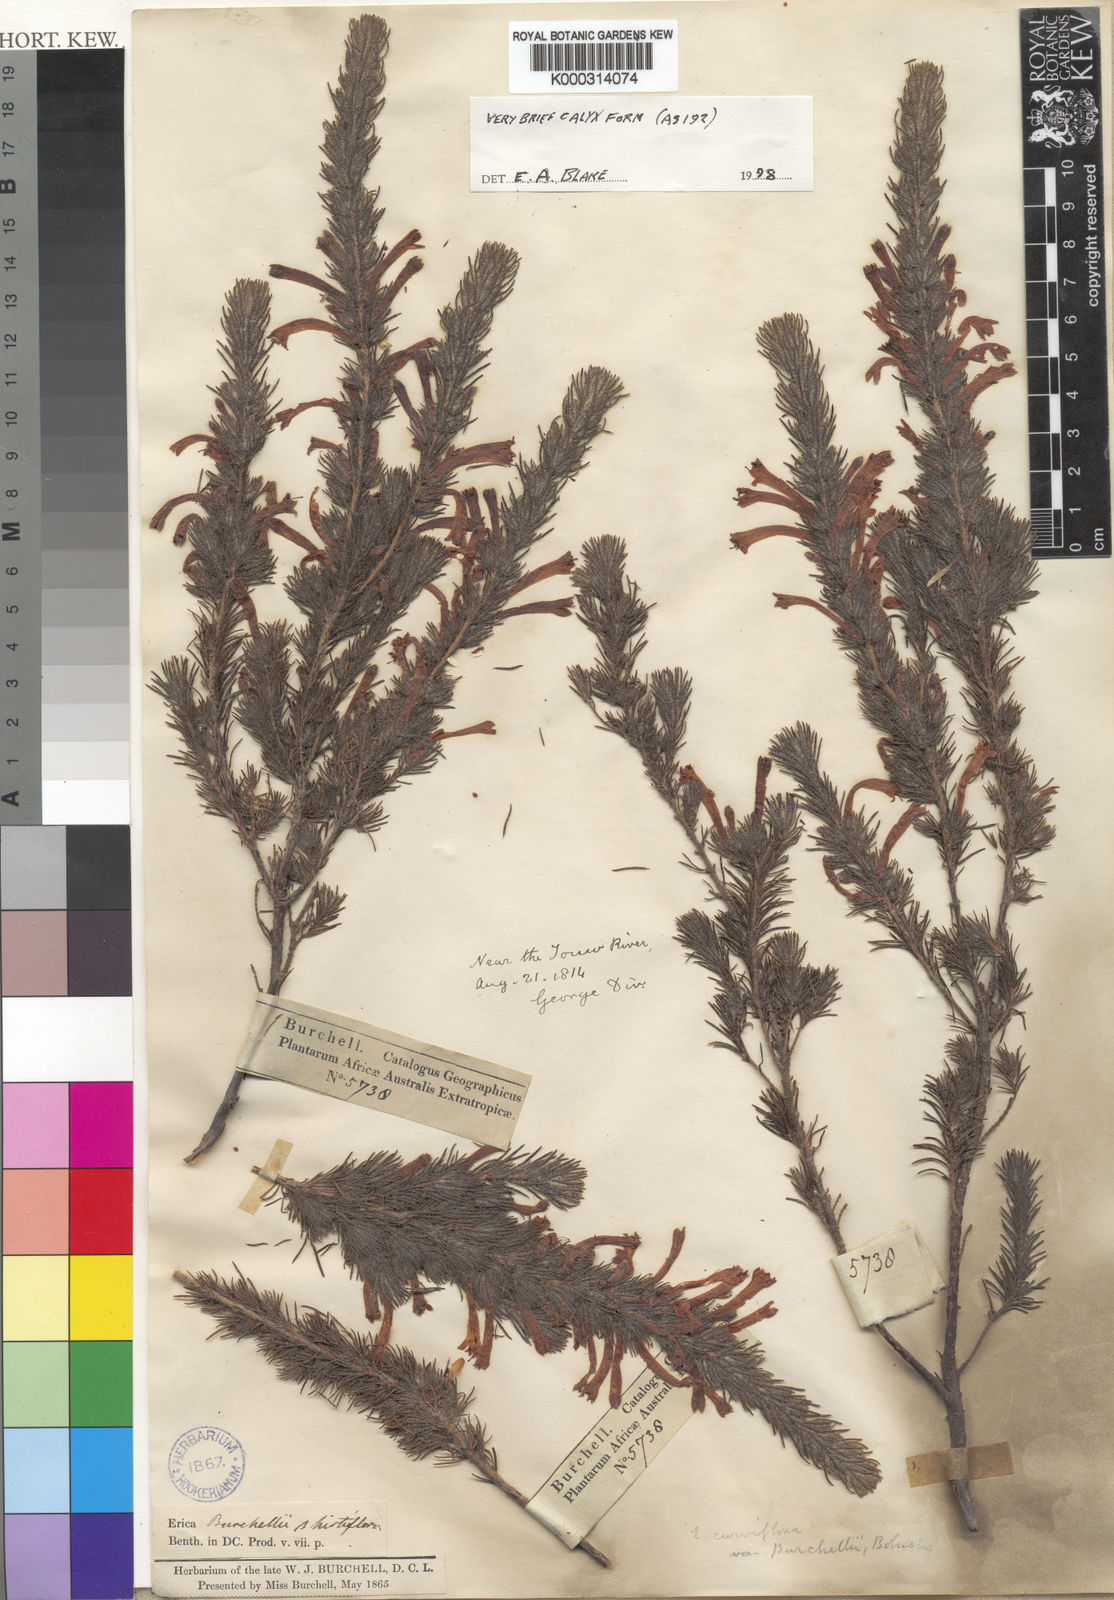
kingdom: Plantae
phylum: Tracheophyta
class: Magnoliopsida
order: Ericales
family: Ericaceae
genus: Erica
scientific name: Erica curviflora
